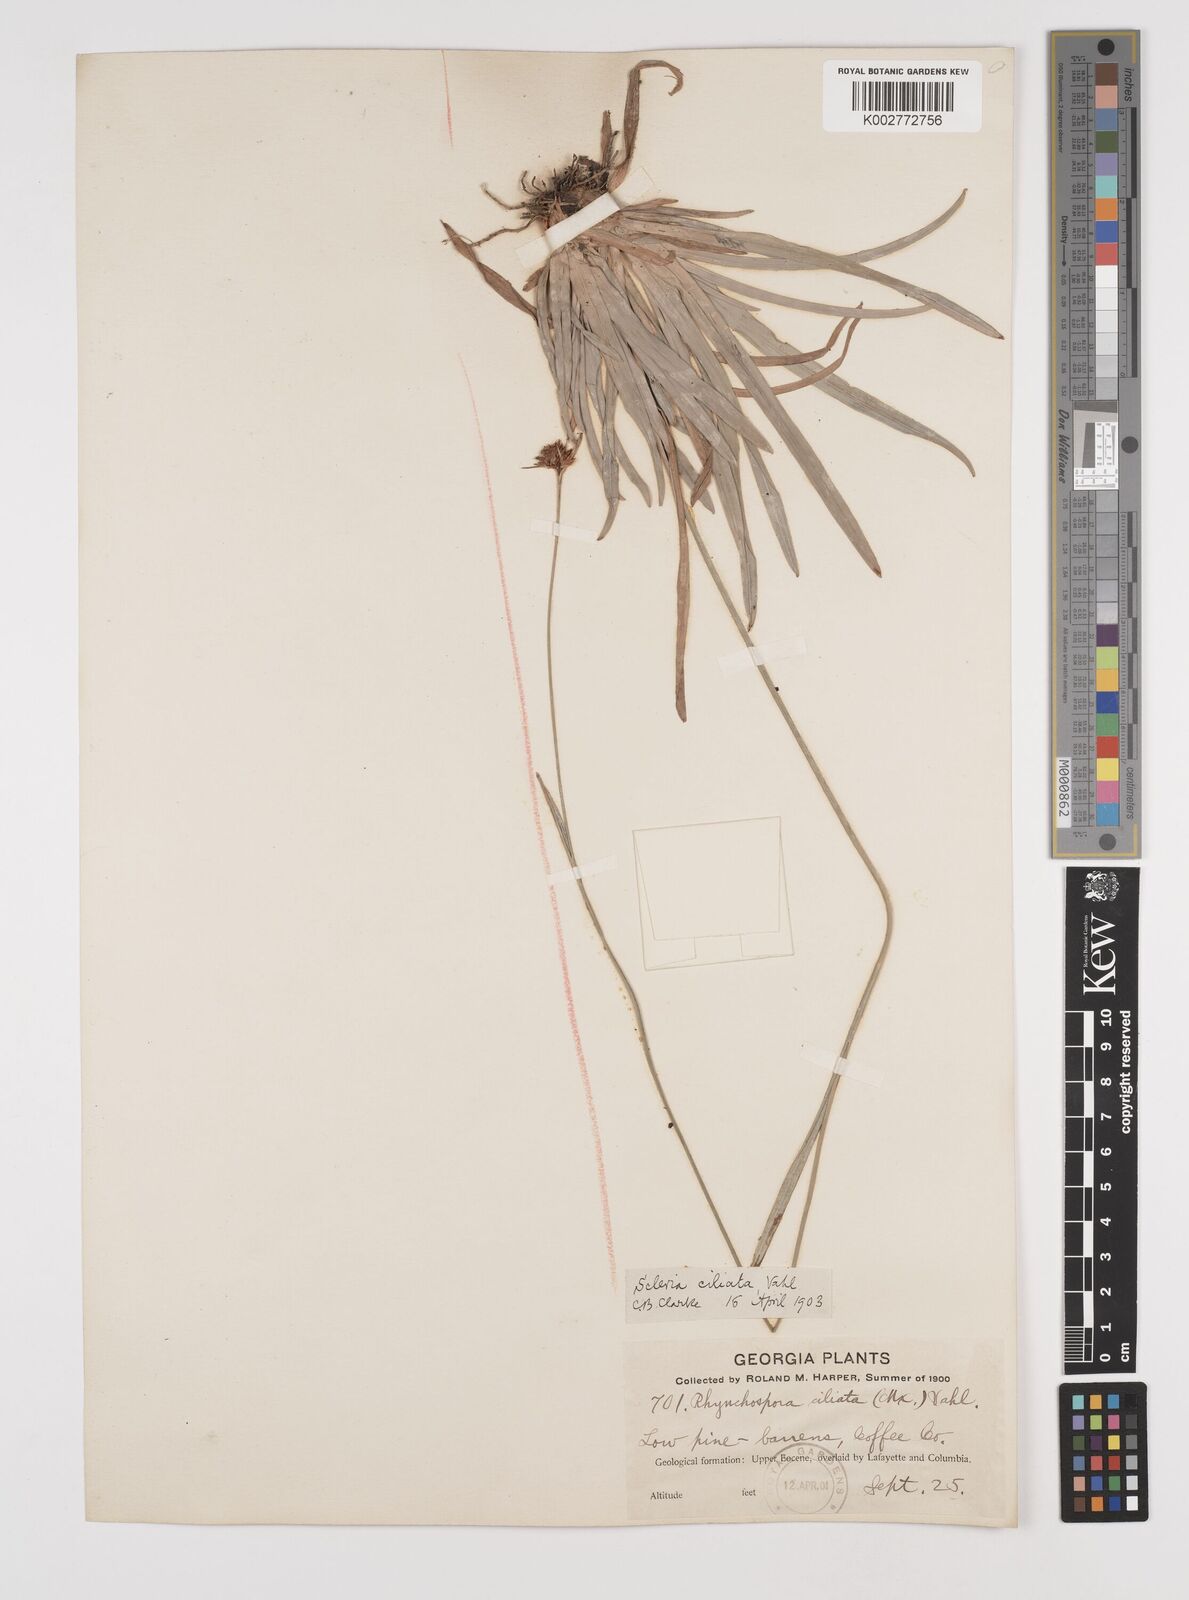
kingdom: Plantae
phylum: Tracheophyta
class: Liliopsida
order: Poales
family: Cyperaceae
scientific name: Cyperaceae
